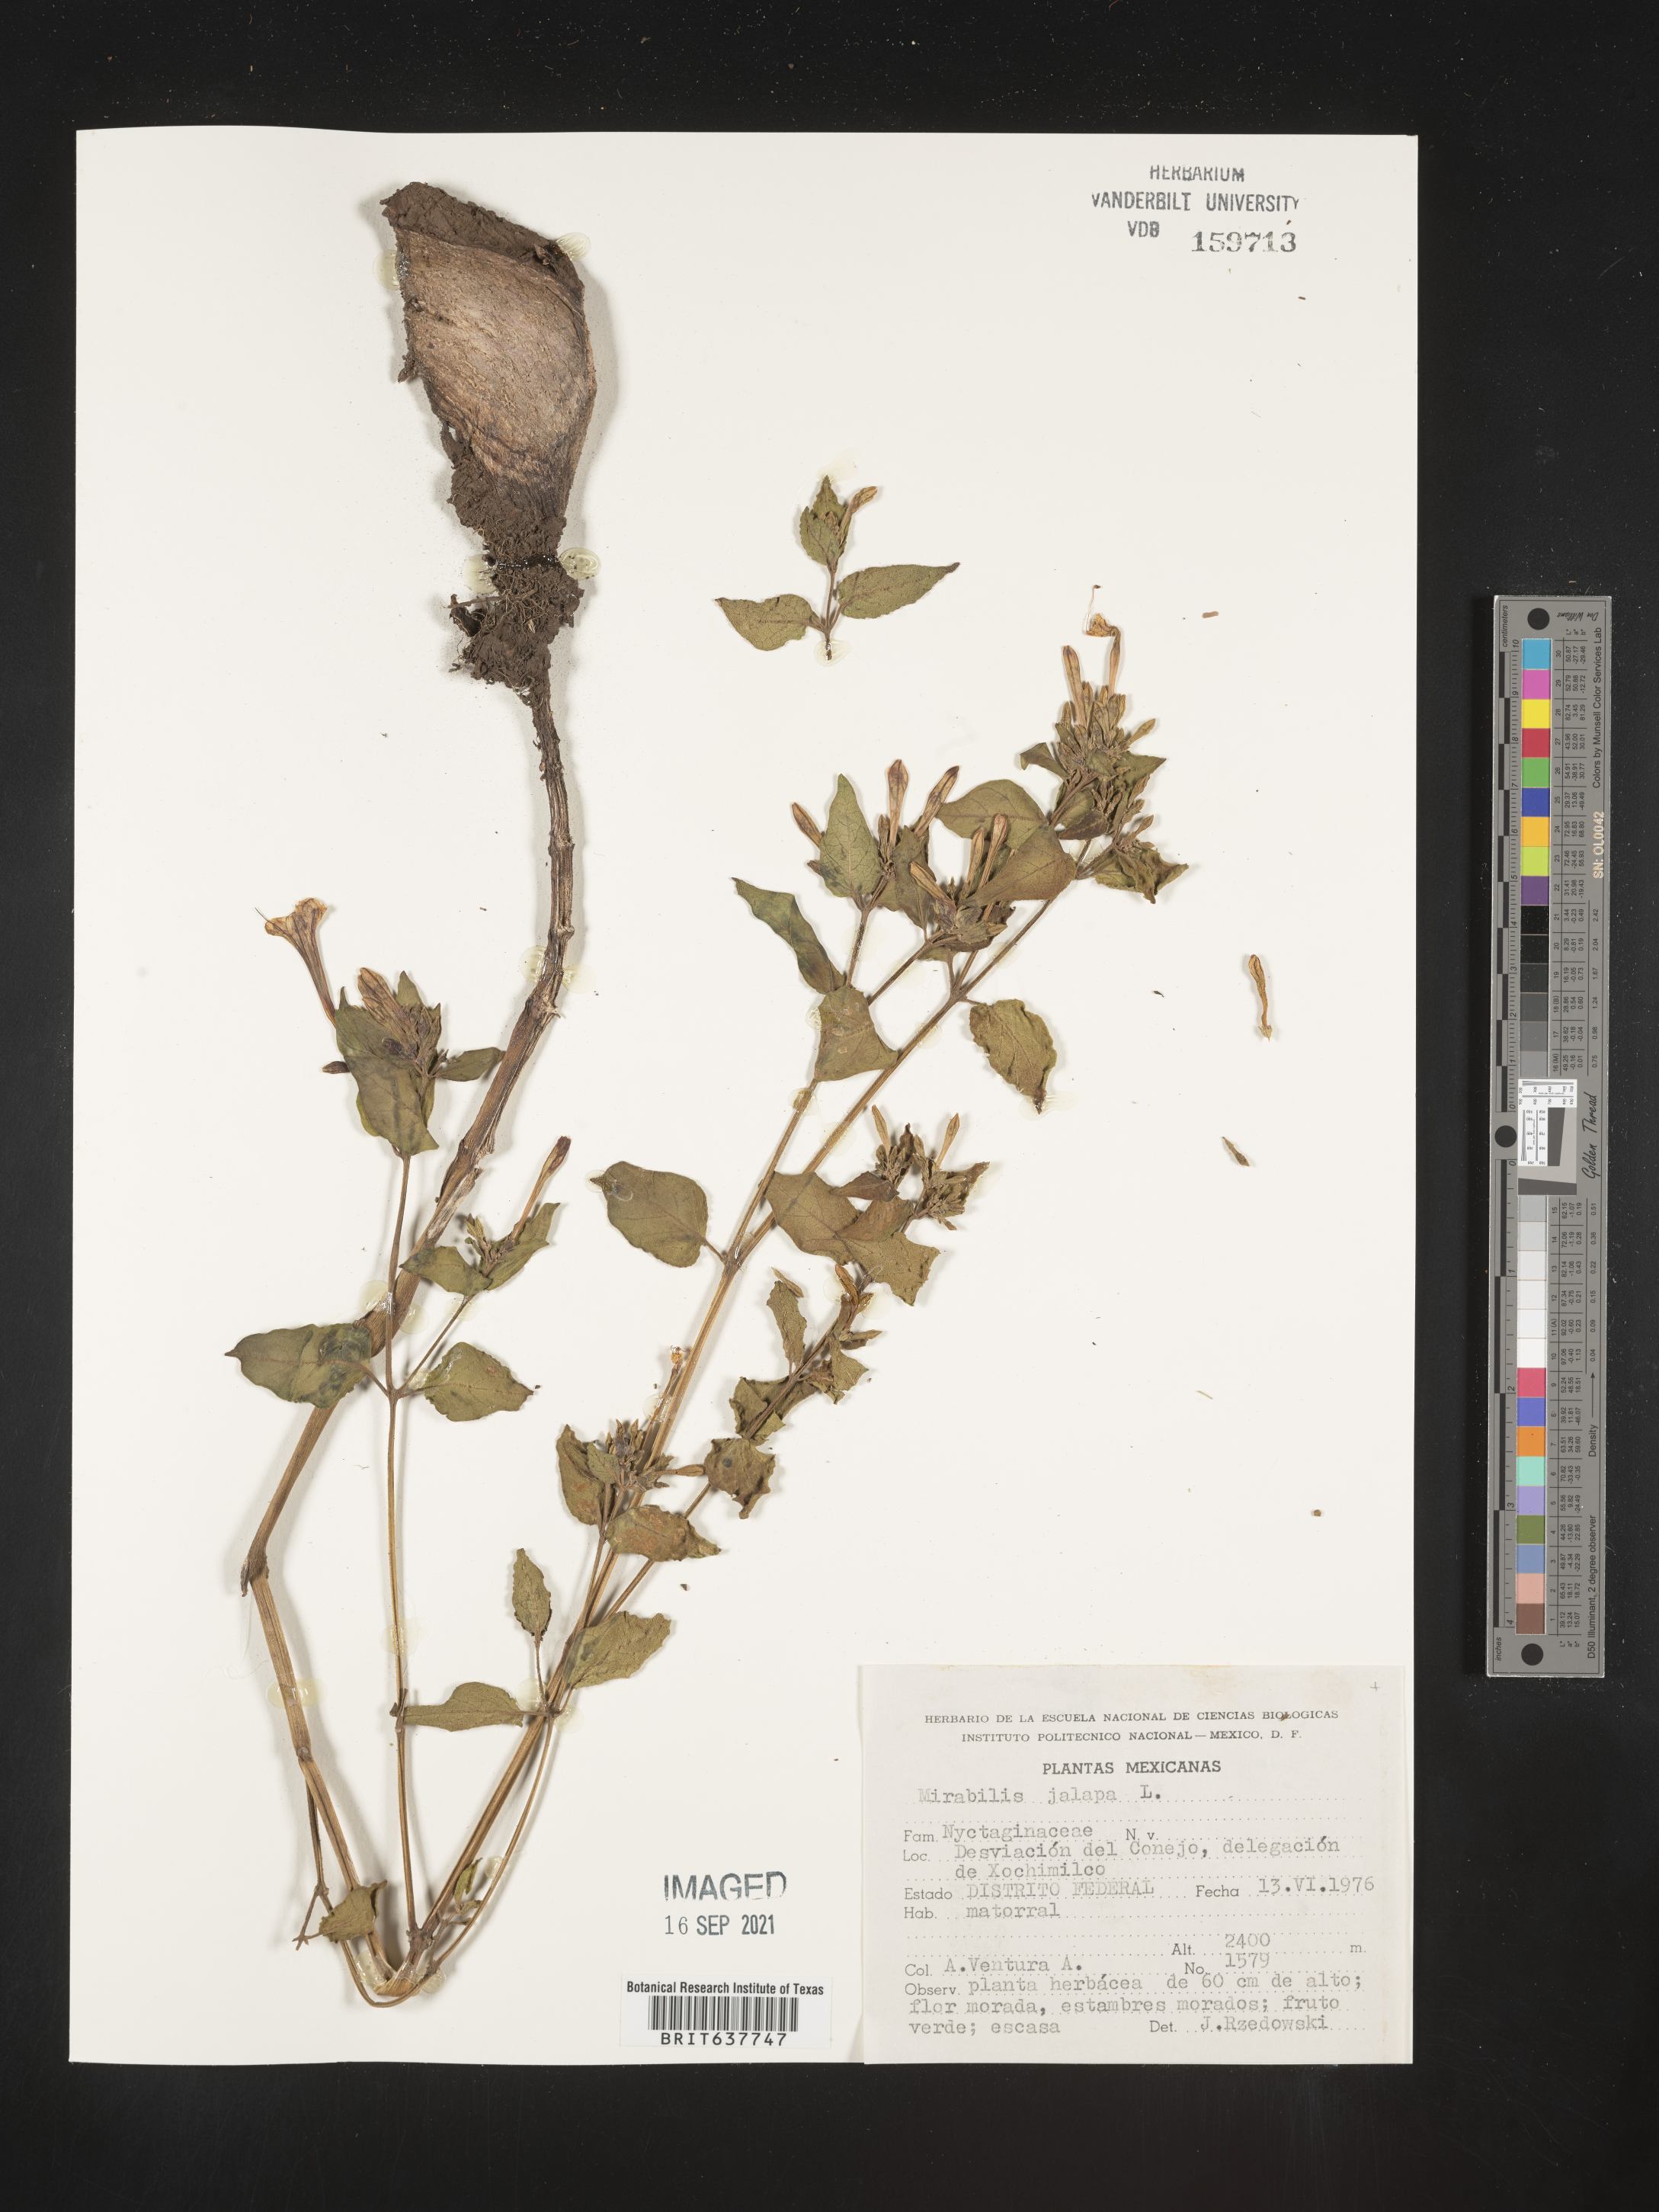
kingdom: Plantae
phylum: Tracheophyta
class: Magnoliopsida
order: Caryophyllales
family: Nyctaginaceae
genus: Mirabilis
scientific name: Mirabilis
